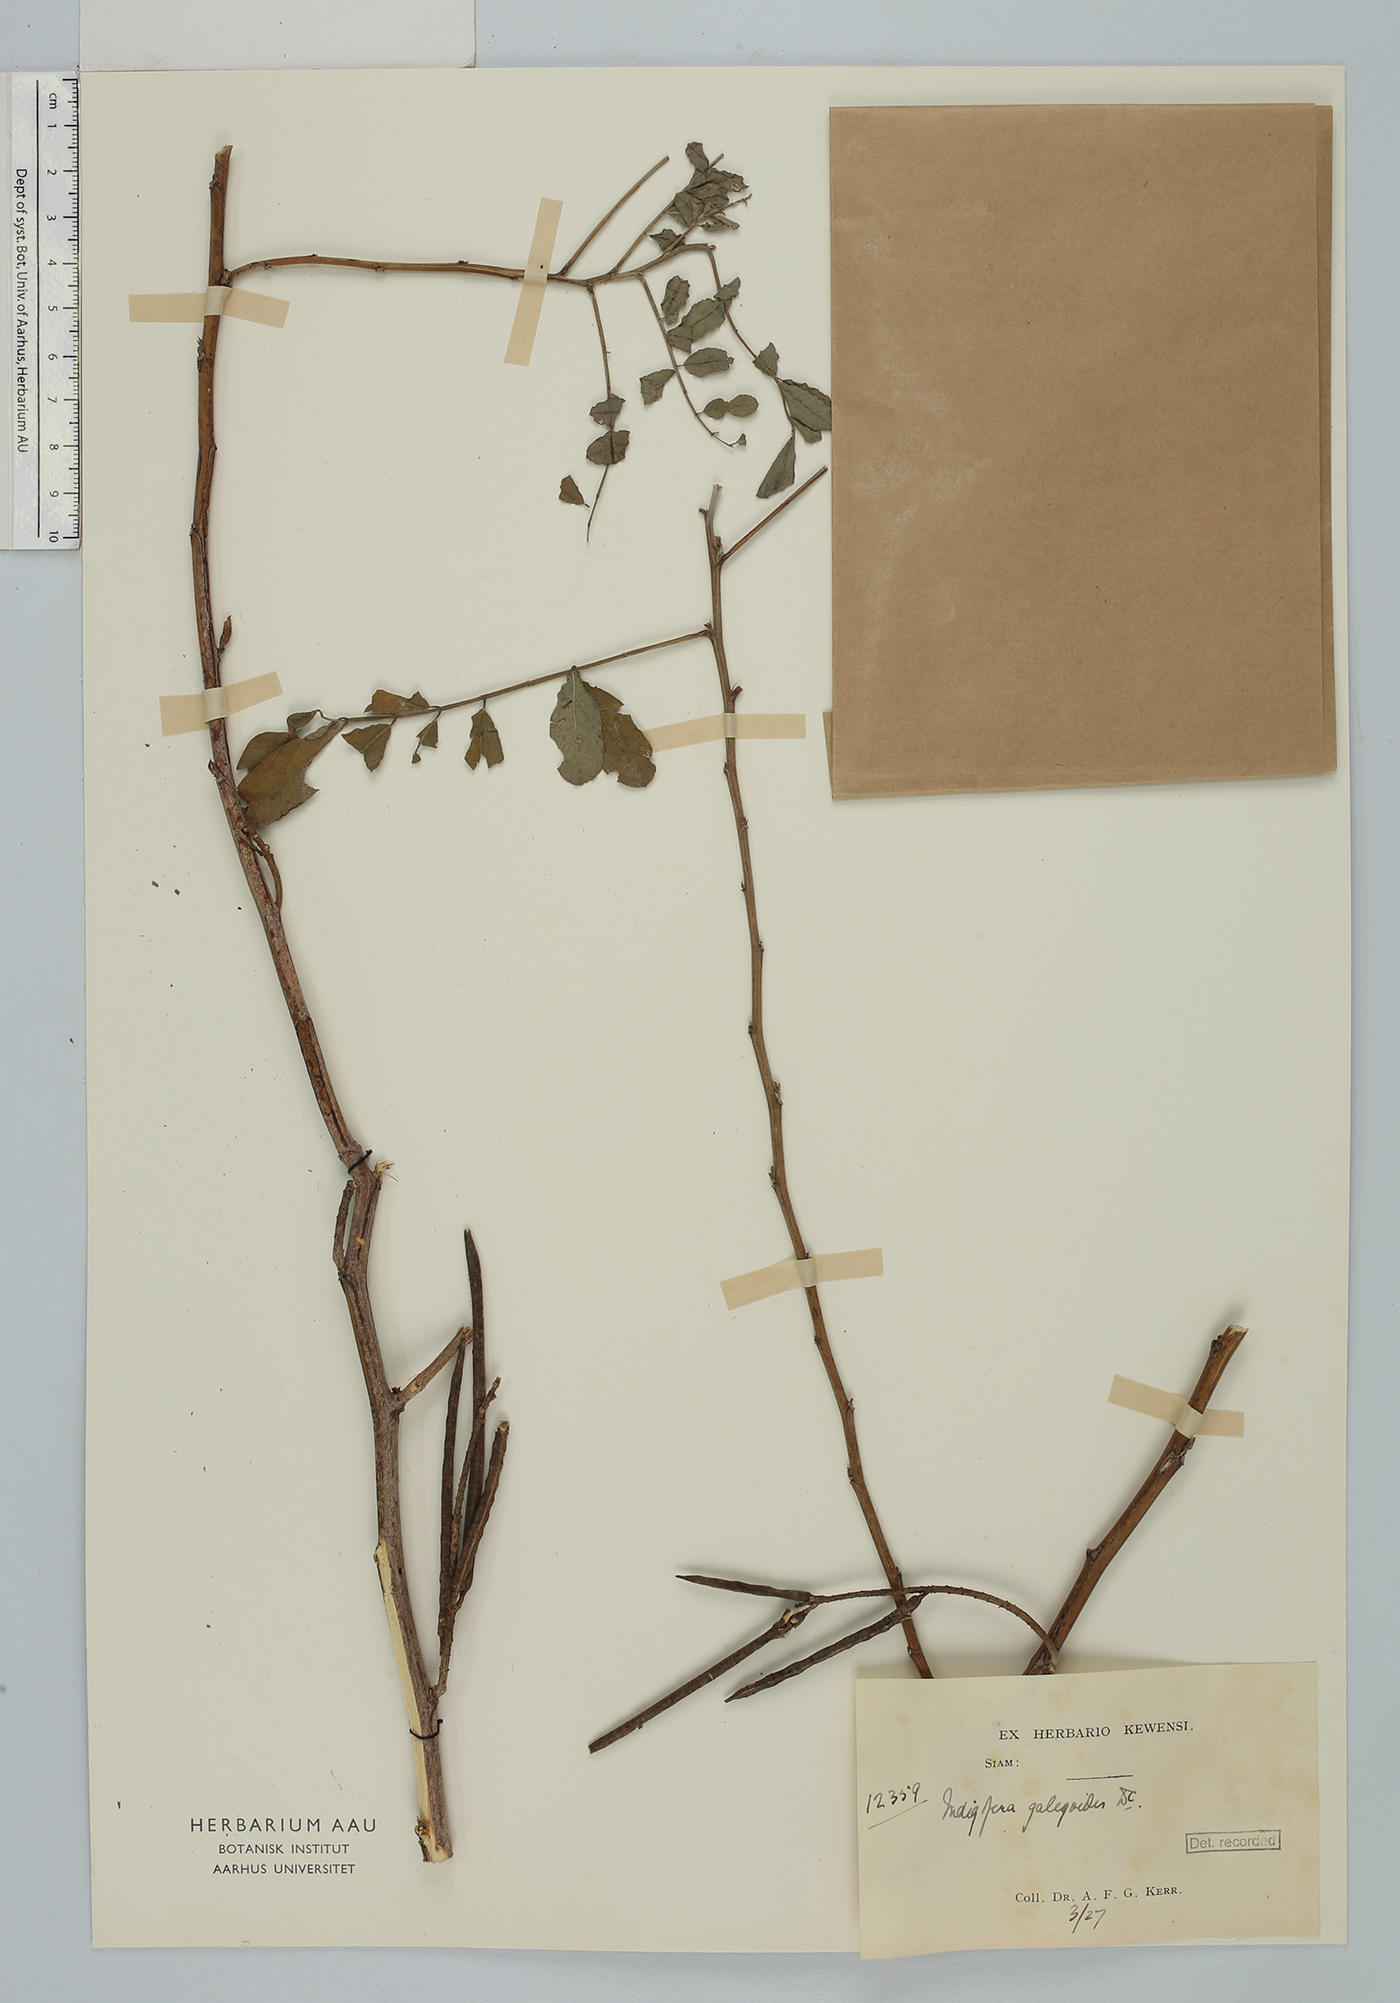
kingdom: Plantae
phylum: Tracheophyta
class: Magnoliopsida
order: Fabales
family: Fabaceae
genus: Indigofera
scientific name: Indigofera galegoides
